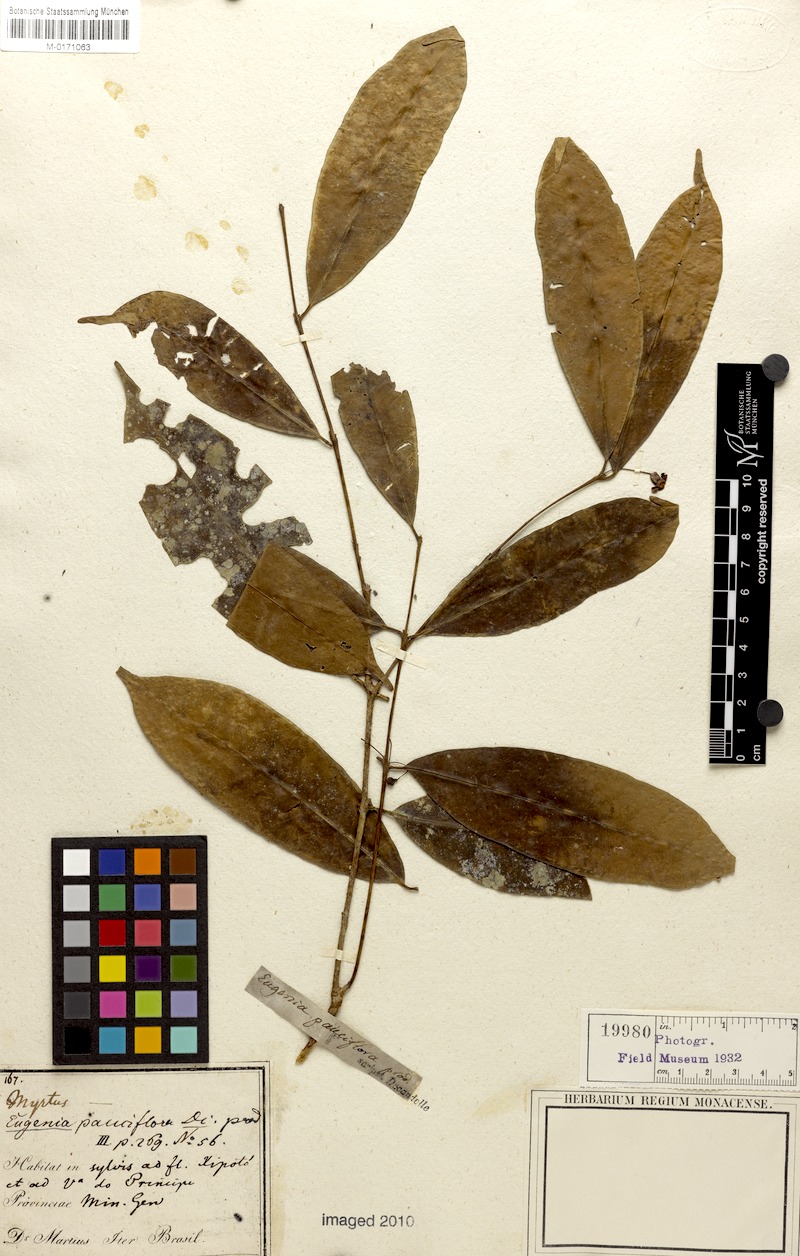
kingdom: Plantae
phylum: Tracheophyta
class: Magnoliopsida
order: Myrtales
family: Myrtaceae
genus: Eugenia
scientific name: Eugenia pauciflora
